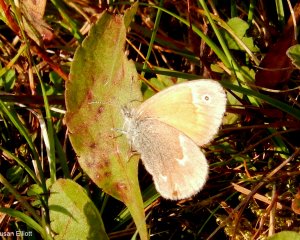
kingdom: Animalia
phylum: Arthropoda
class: Insecta
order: Lepidoptera
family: Nymphalidae
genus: Coenonympha
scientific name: Coenonympha tullia
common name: Large Heath
